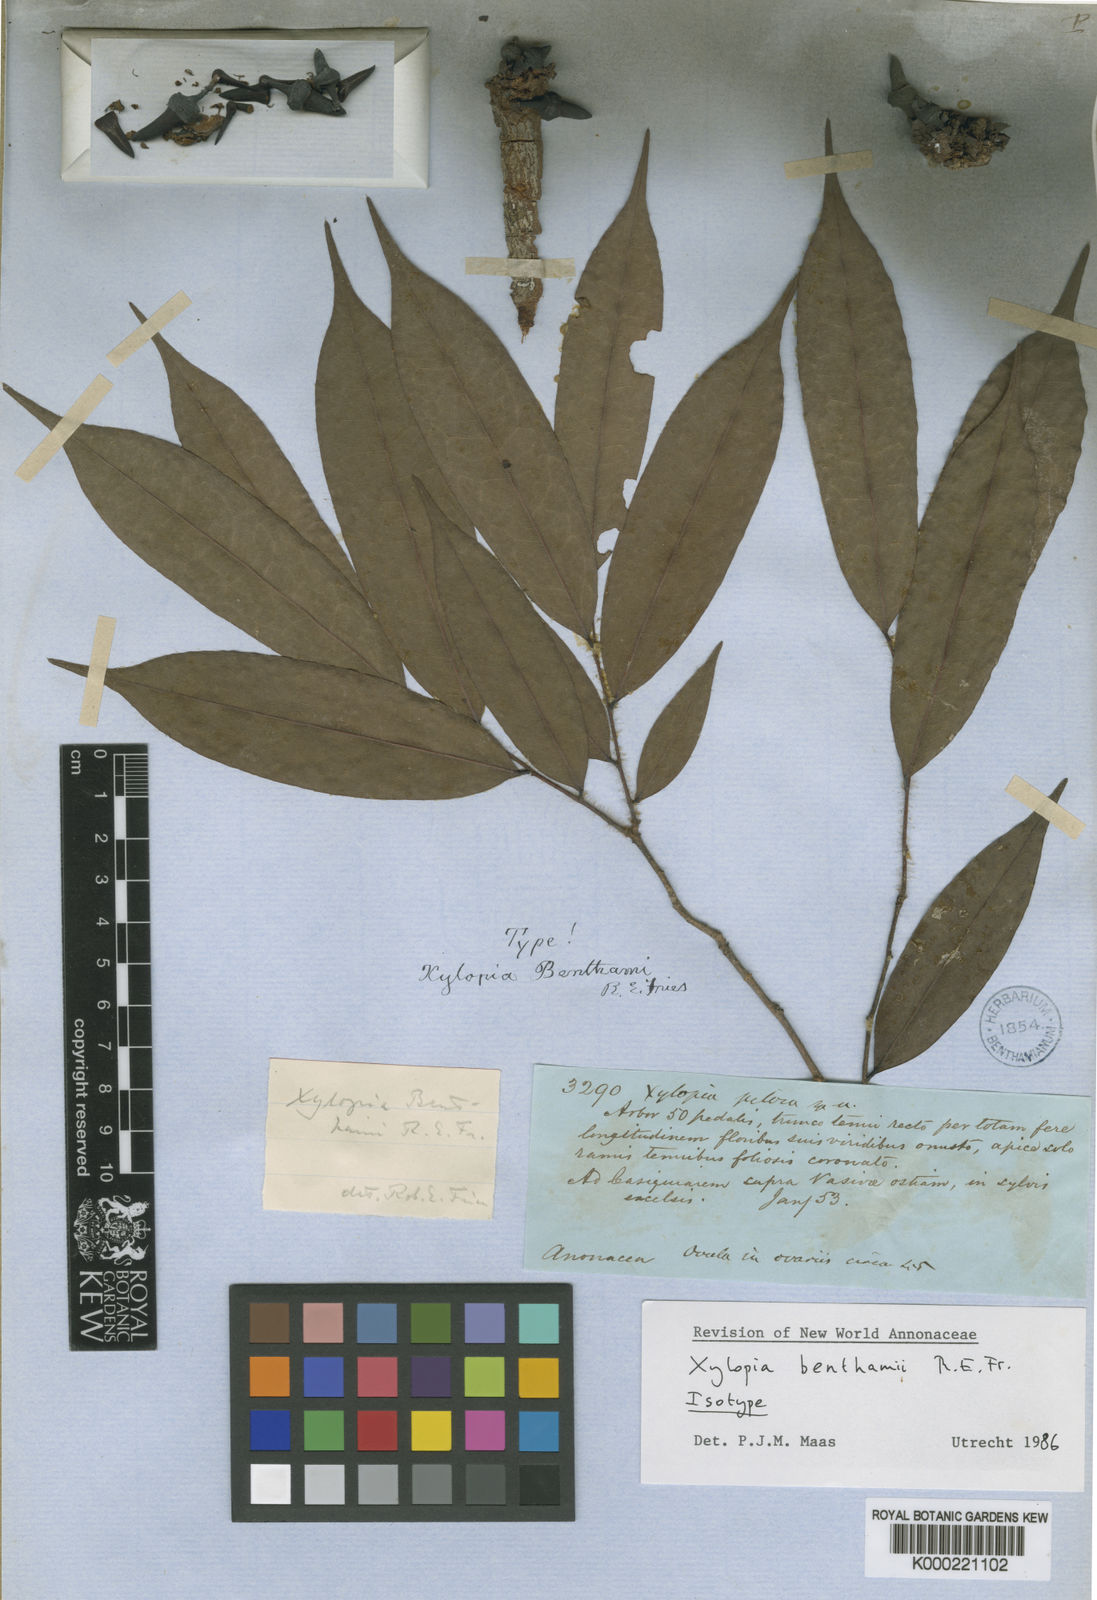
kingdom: Plantae
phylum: Tracheophyta
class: Magnoliopsida
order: Magnoliales
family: Annonaceae
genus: Xylopia
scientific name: Xylopia benthamii
